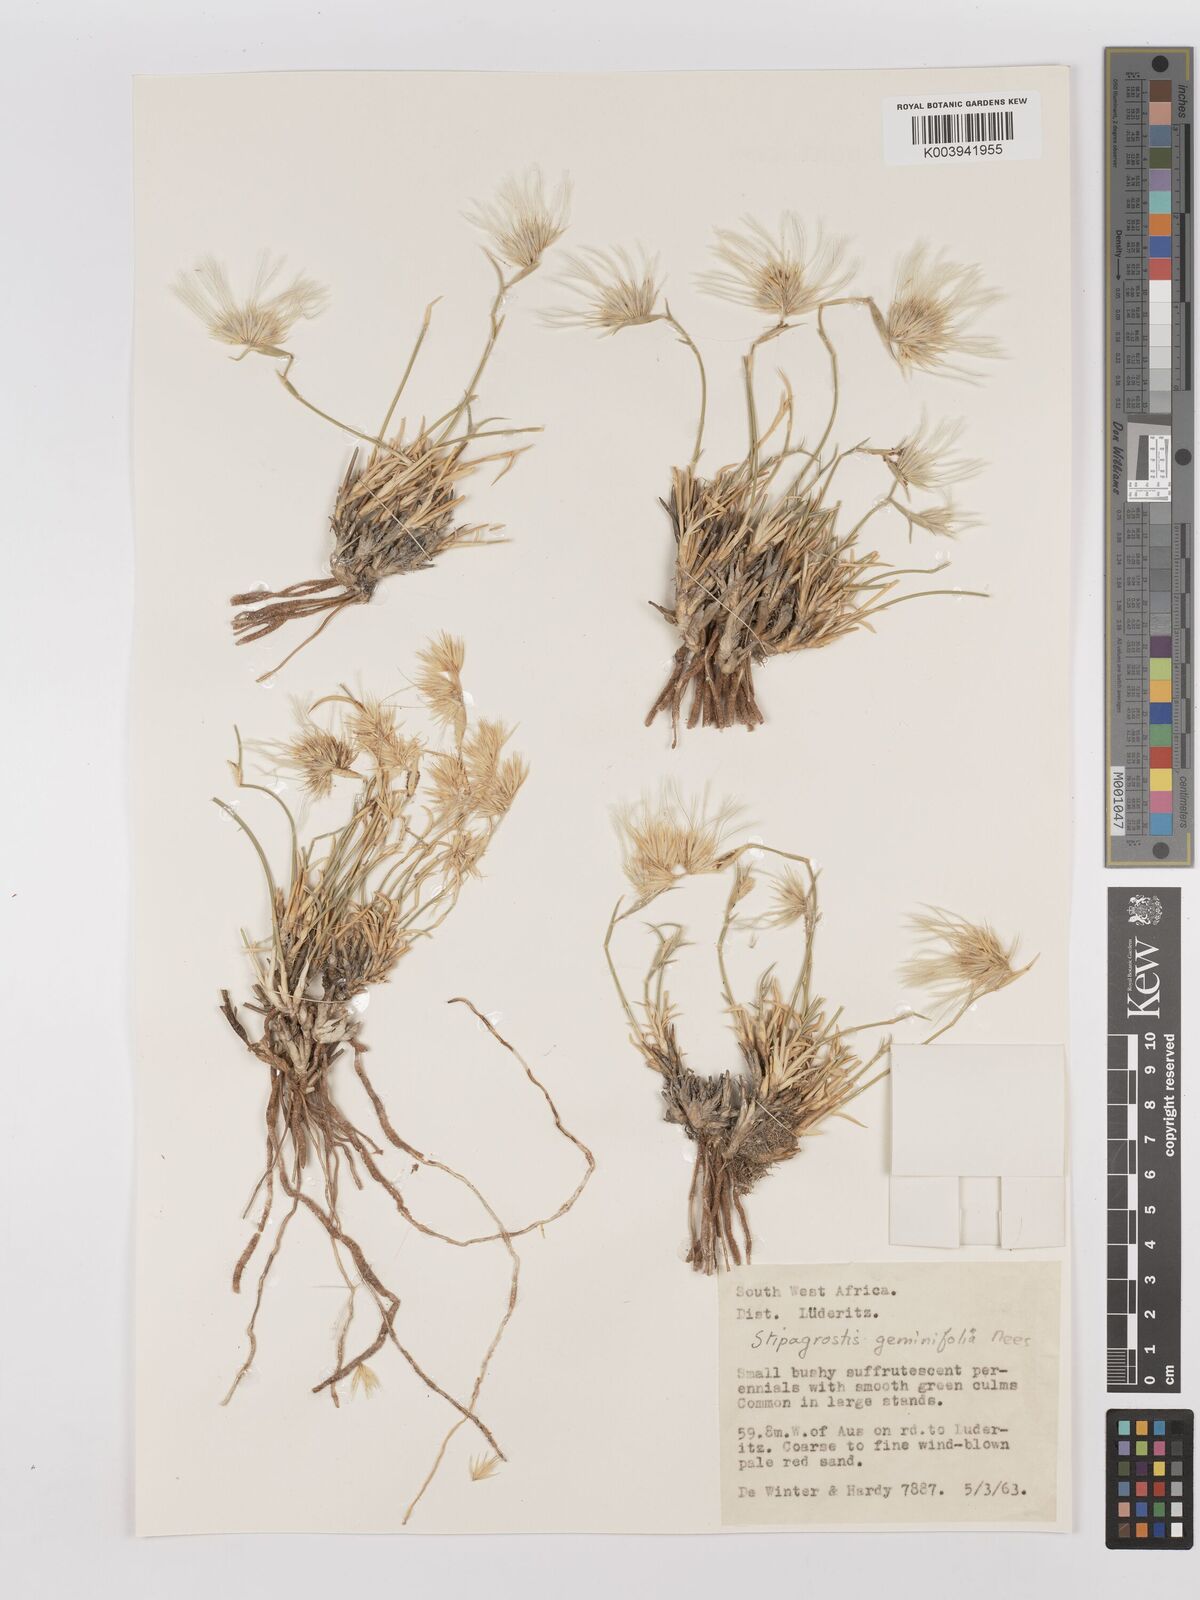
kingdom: Plantae
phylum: Tracheophyta
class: Liliopsida
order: Poales
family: Poaceae
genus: Stipagrostis
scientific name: Stipagrostis geminifolia
